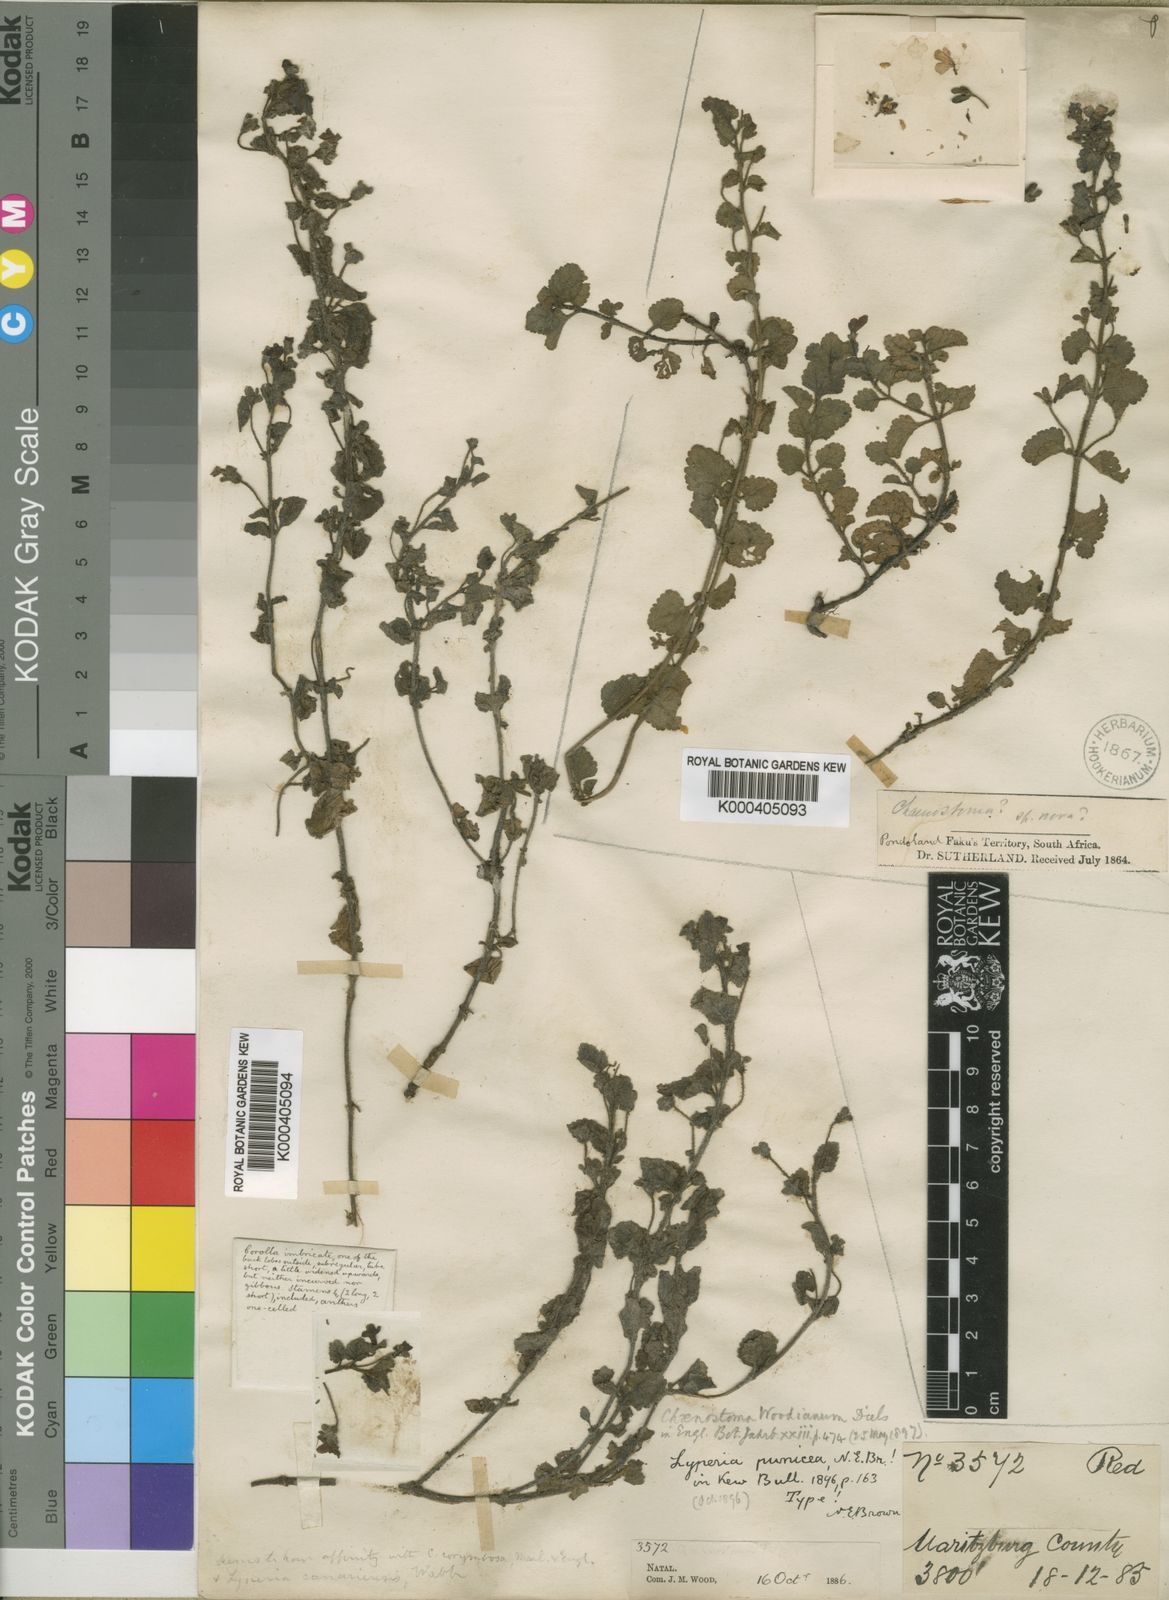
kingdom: Plantae
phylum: Tracheophyta
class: Magnoliopsida
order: Lamiales
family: Scrophulariaceae
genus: Jamesbrittenia
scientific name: Jamesbrittenia breviflora
